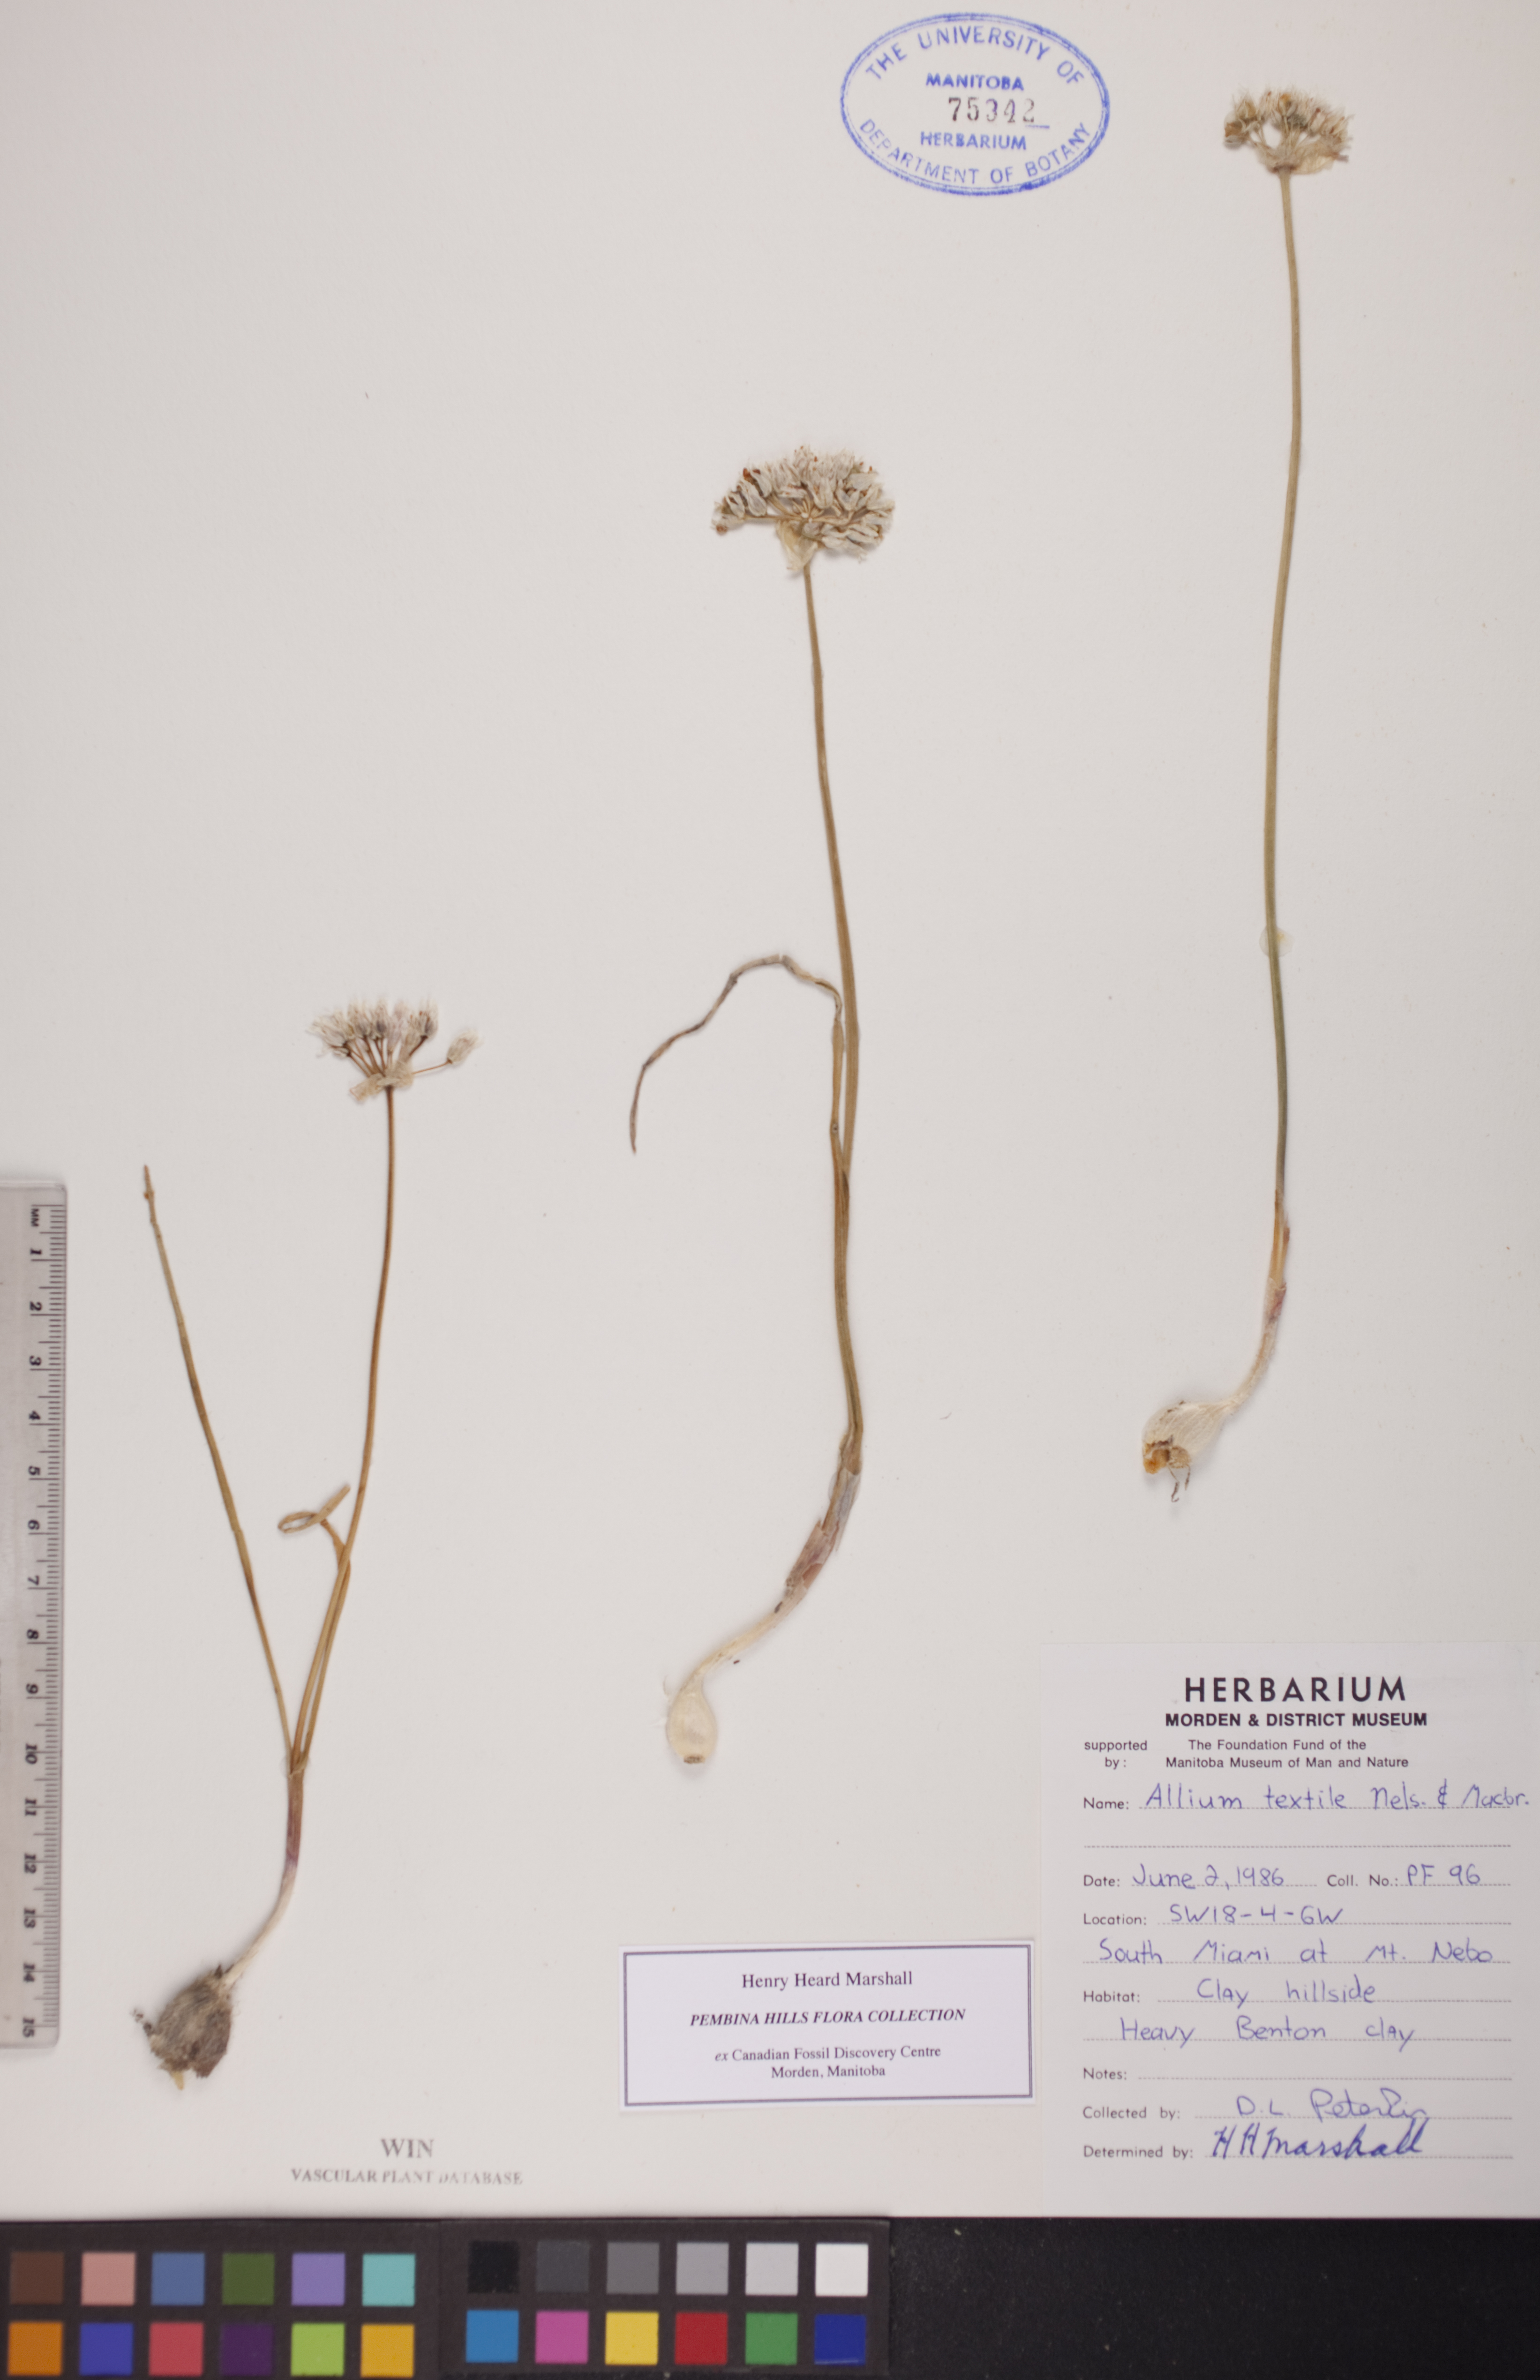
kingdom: Plantae
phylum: Tracheophyta
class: Liliopsida
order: Asparagales
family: Amaryllidaceae
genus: Allium
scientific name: Allium textile
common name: Prairie onion
